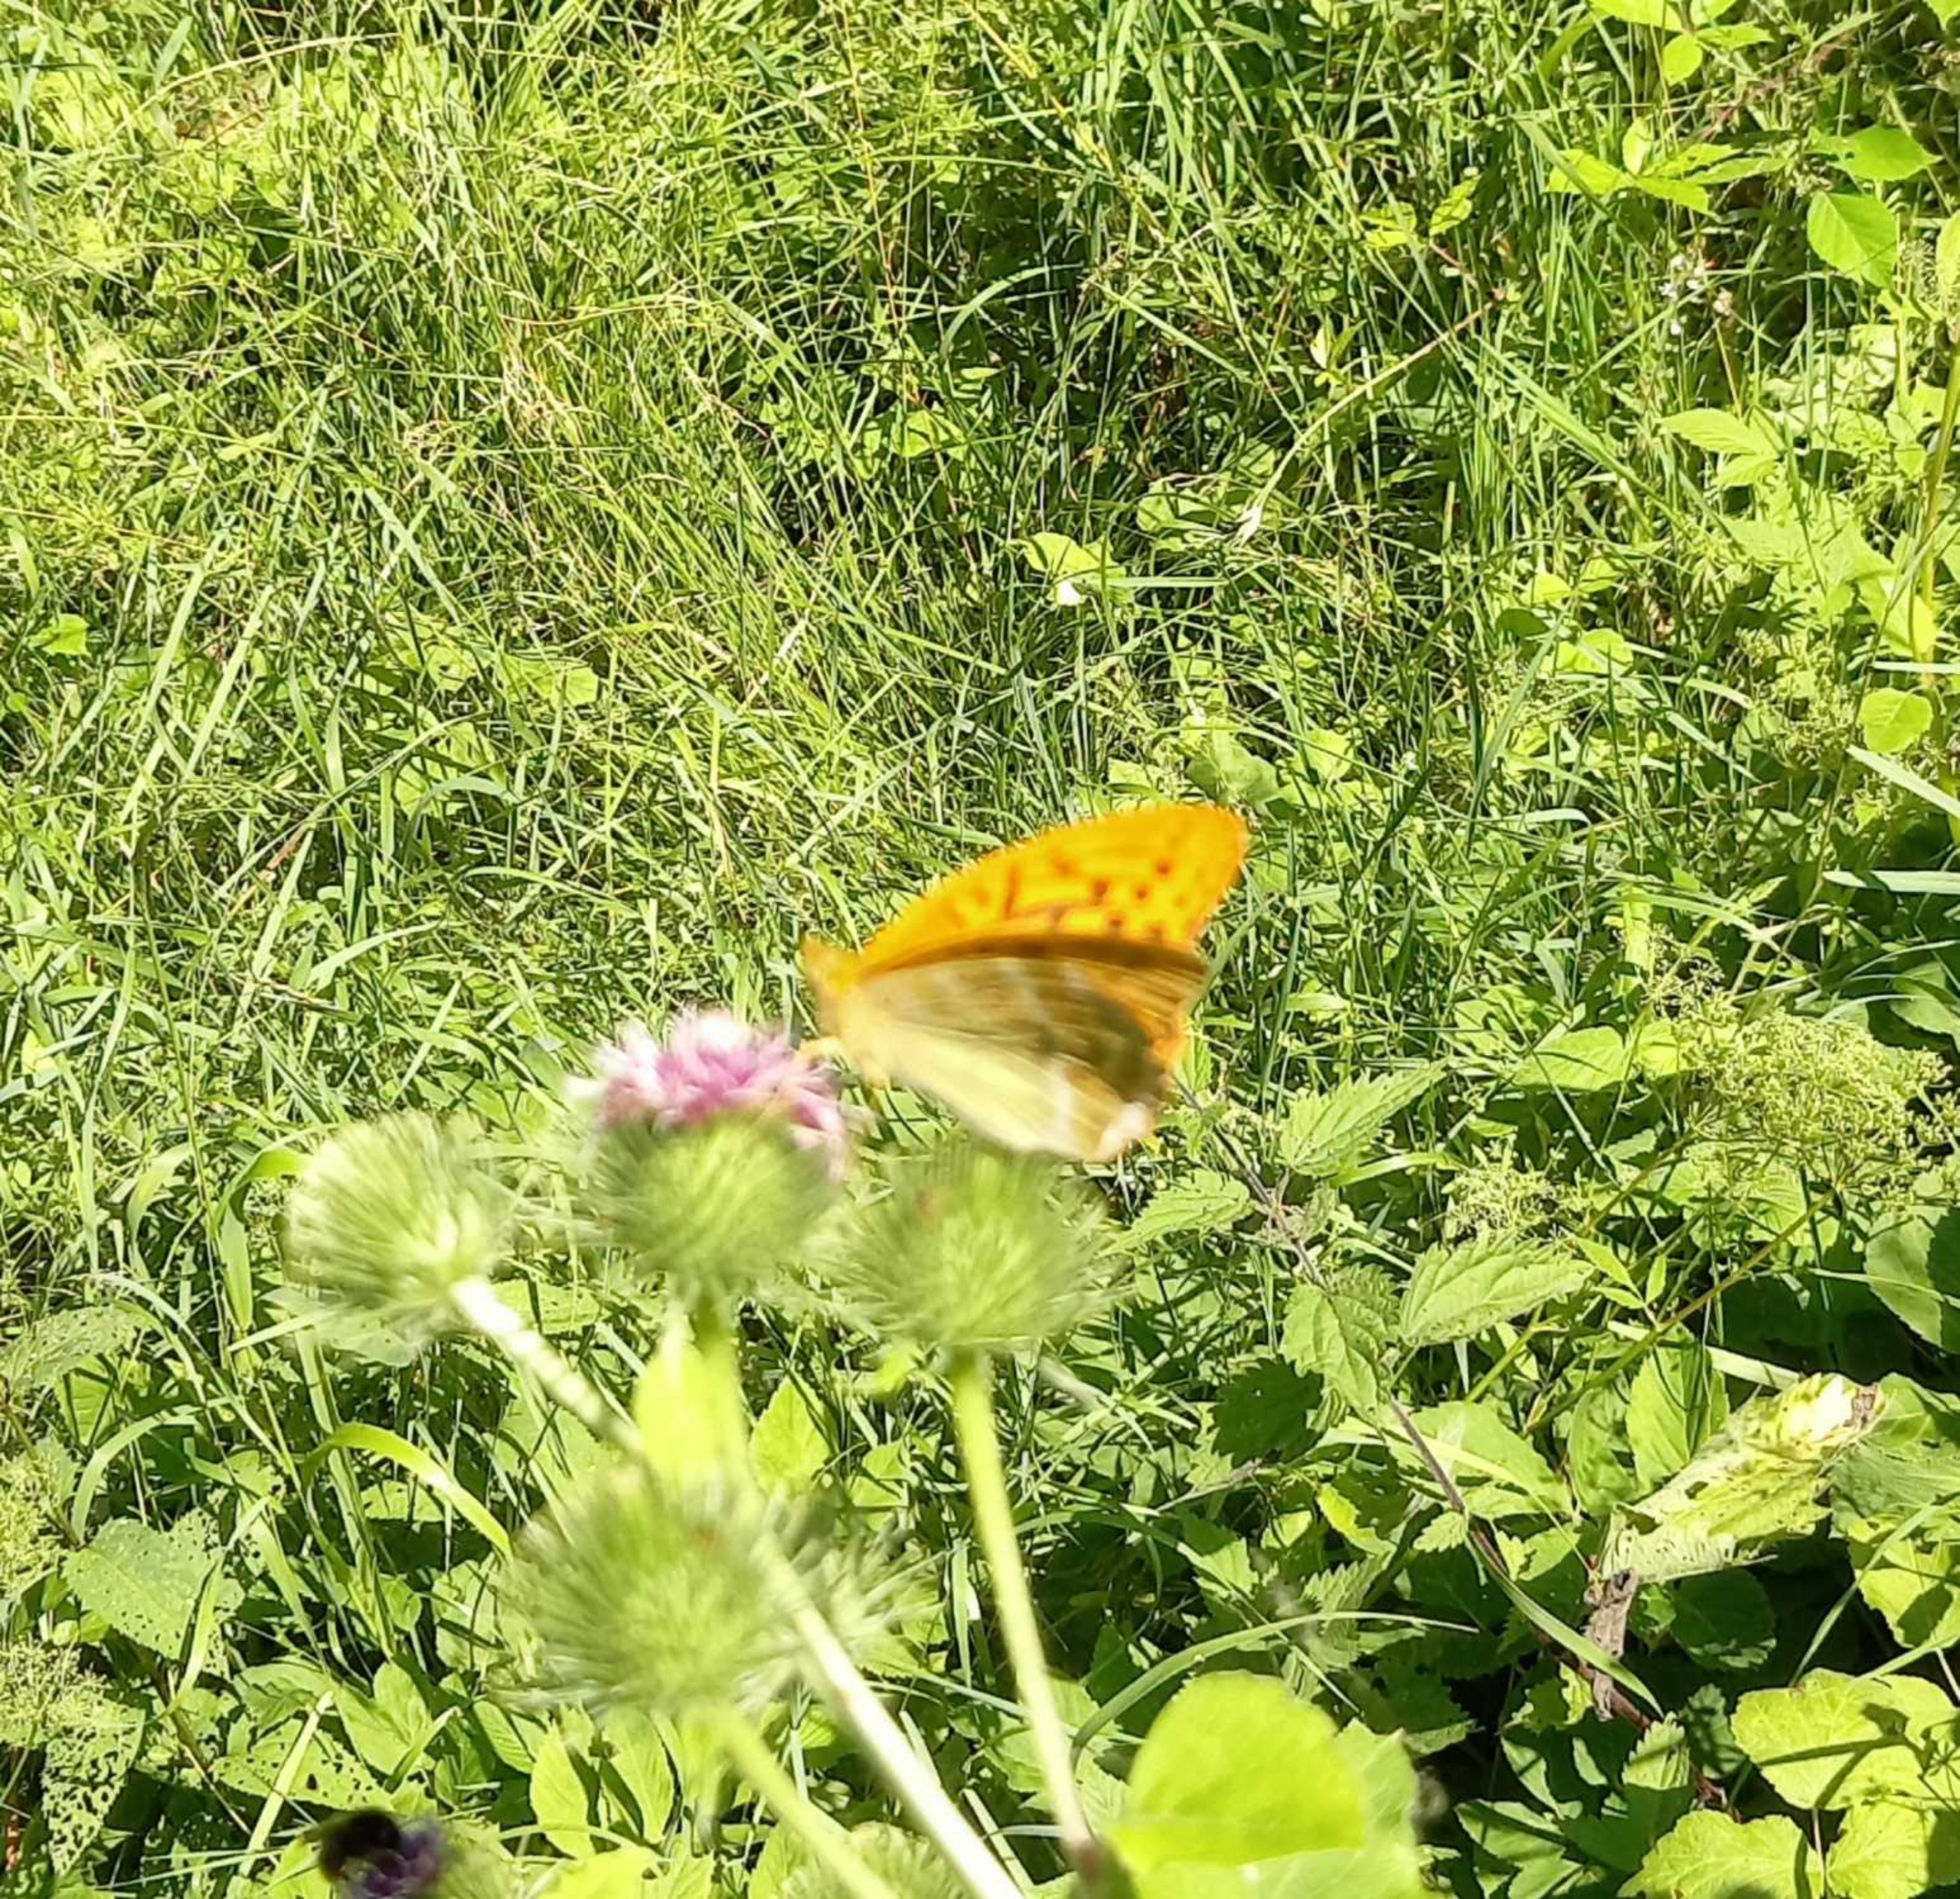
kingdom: Animalia
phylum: Arthropoda
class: Insecta
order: Lepidoptera
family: Nymphalidae
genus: Argynnis
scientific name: Argynnis paphia
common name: Kejserkåbe
